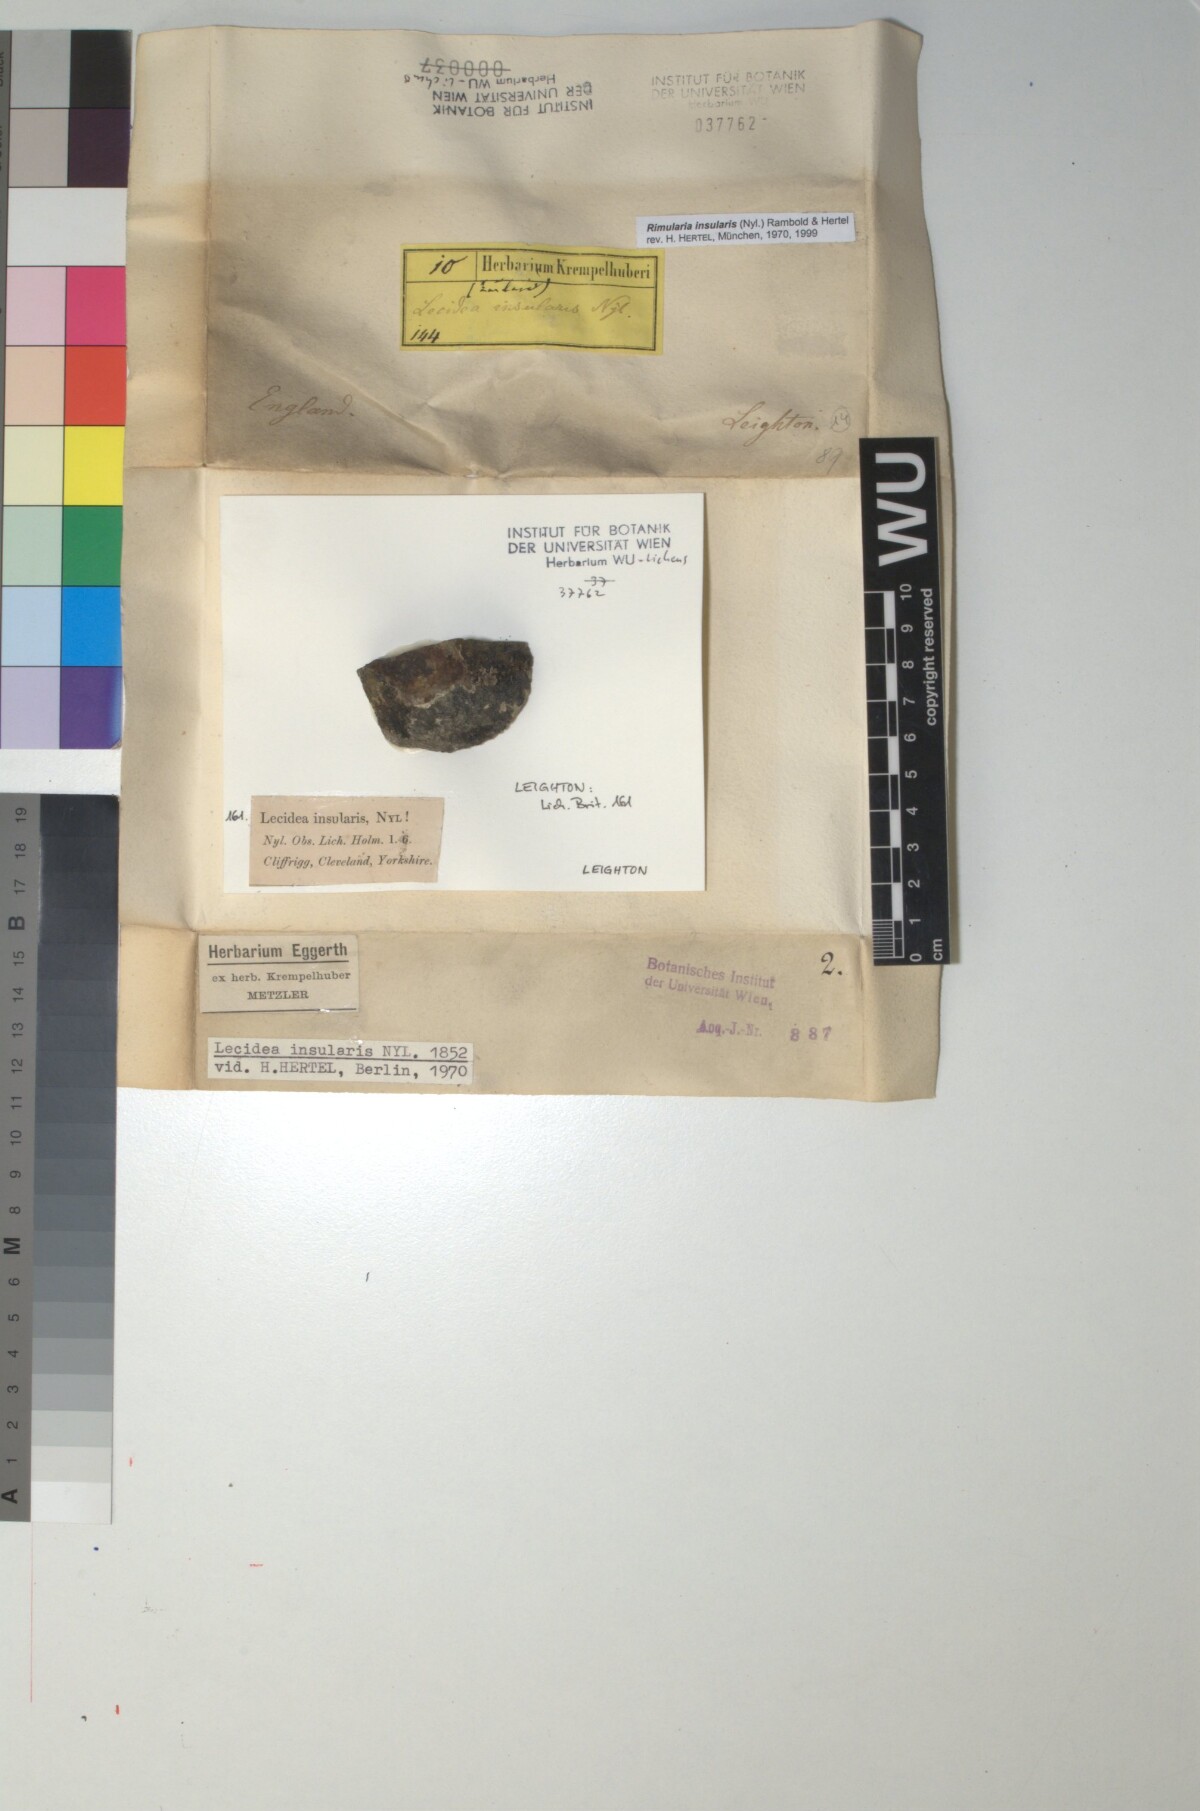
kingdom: Fungi
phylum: Ascomycota
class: Lecanoromycetes
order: Baeomycetales
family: Trapeliaceae
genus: Lambiella
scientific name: Lambiella insularis
